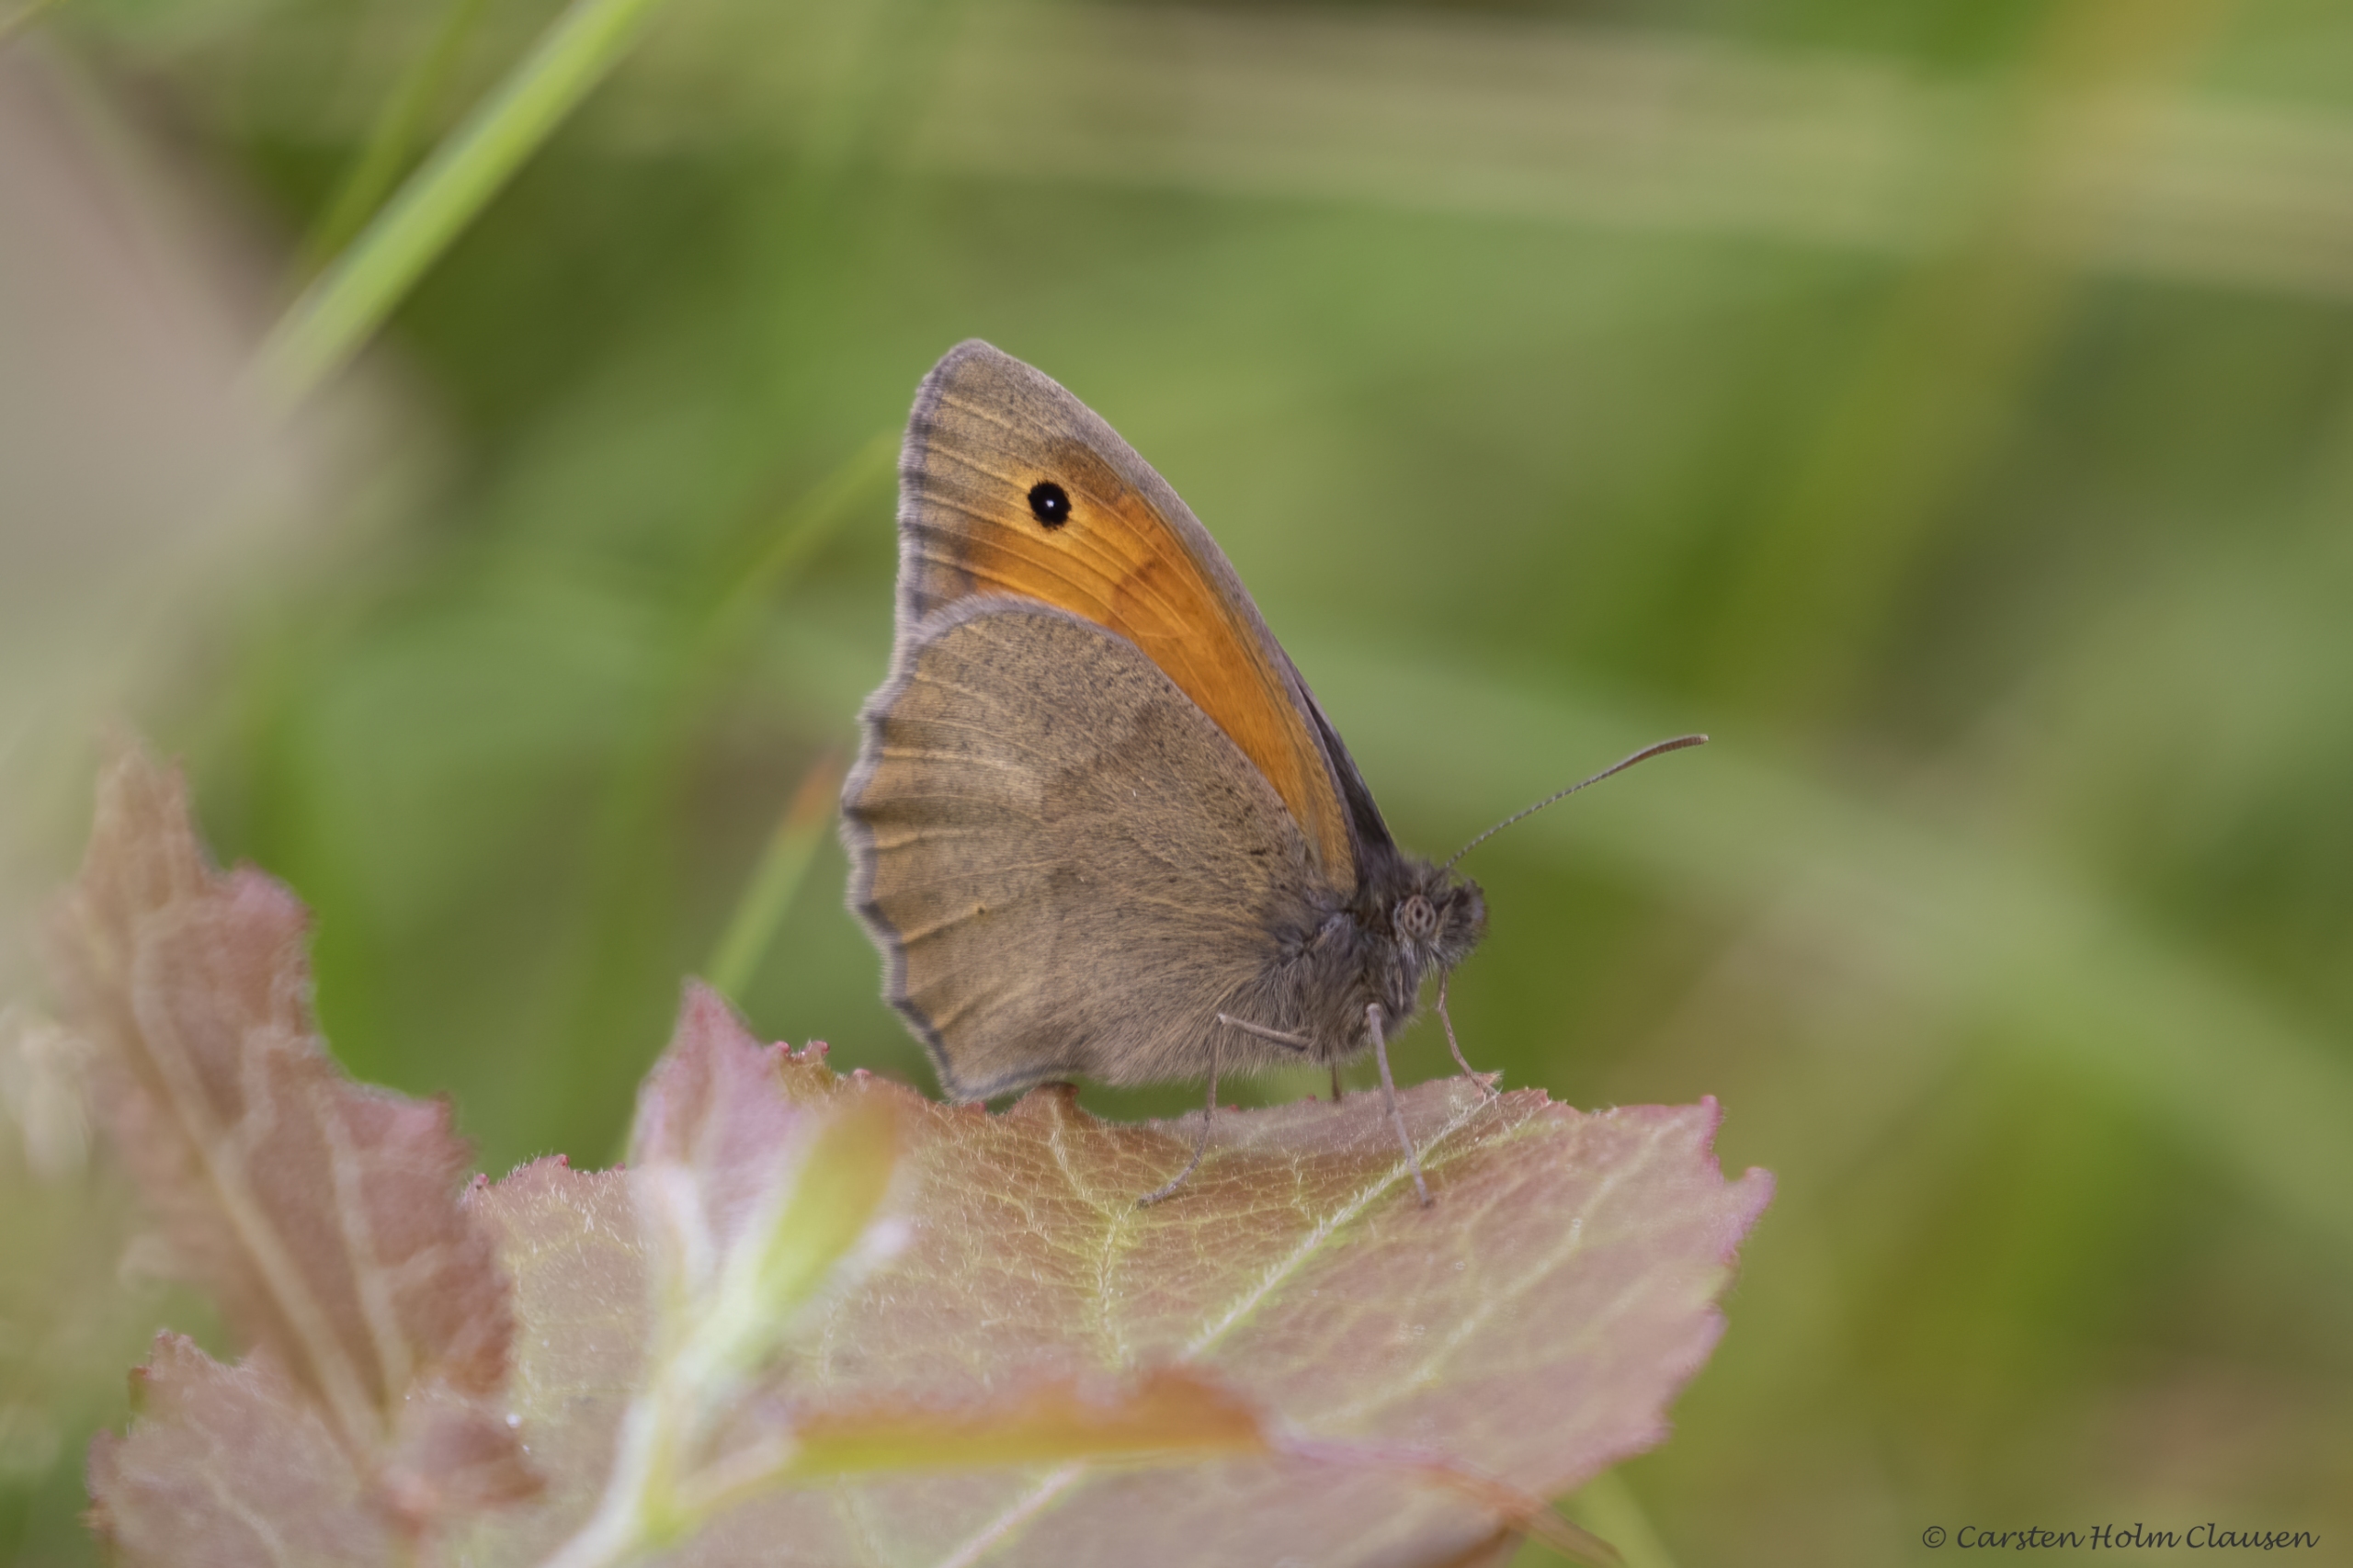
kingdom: Animalia
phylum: Arthropoda
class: Insecta
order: Lepidoptera
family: Nymphalidae
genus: Maniola
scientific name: Maniola jurtina
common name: Græsrandøje
